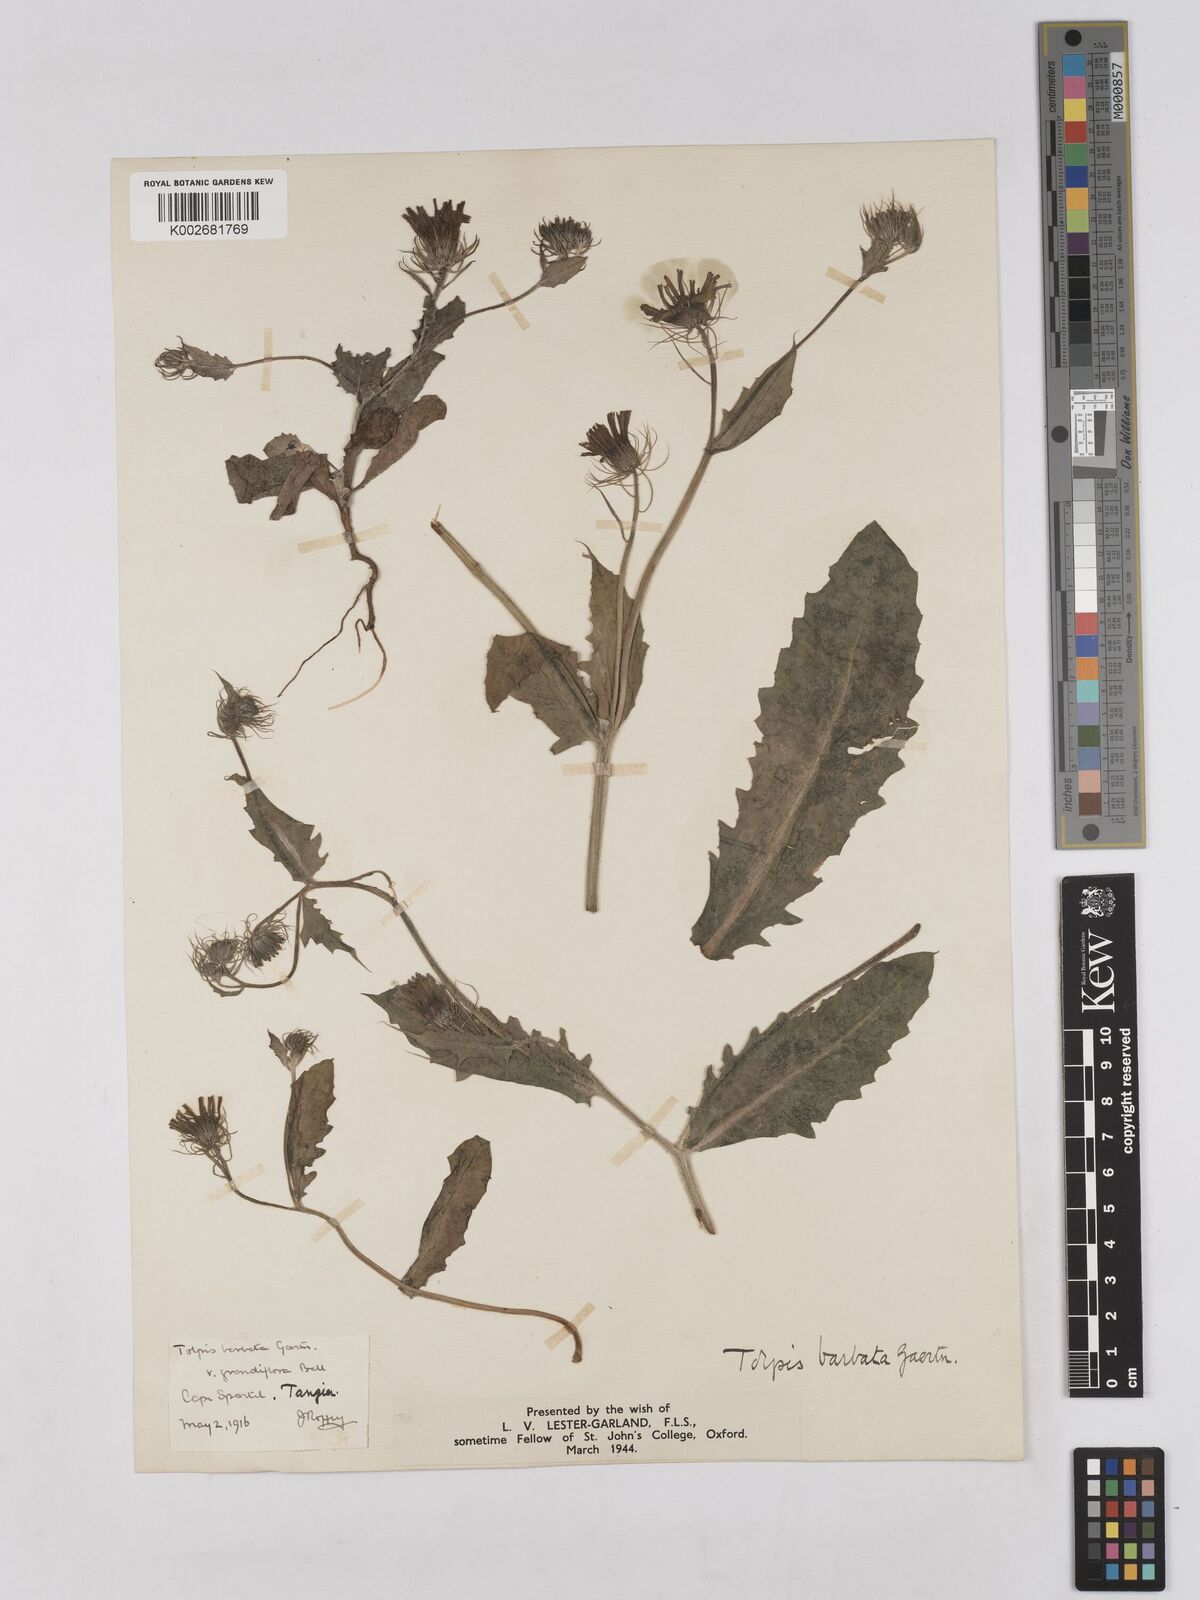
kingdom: Plantae
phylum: Tracheophyta
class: Magnoliopsida
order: Asterales
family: Asteraceae
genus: Tolpis
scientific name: Tolpis barbata
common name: Yellow hawkweed
